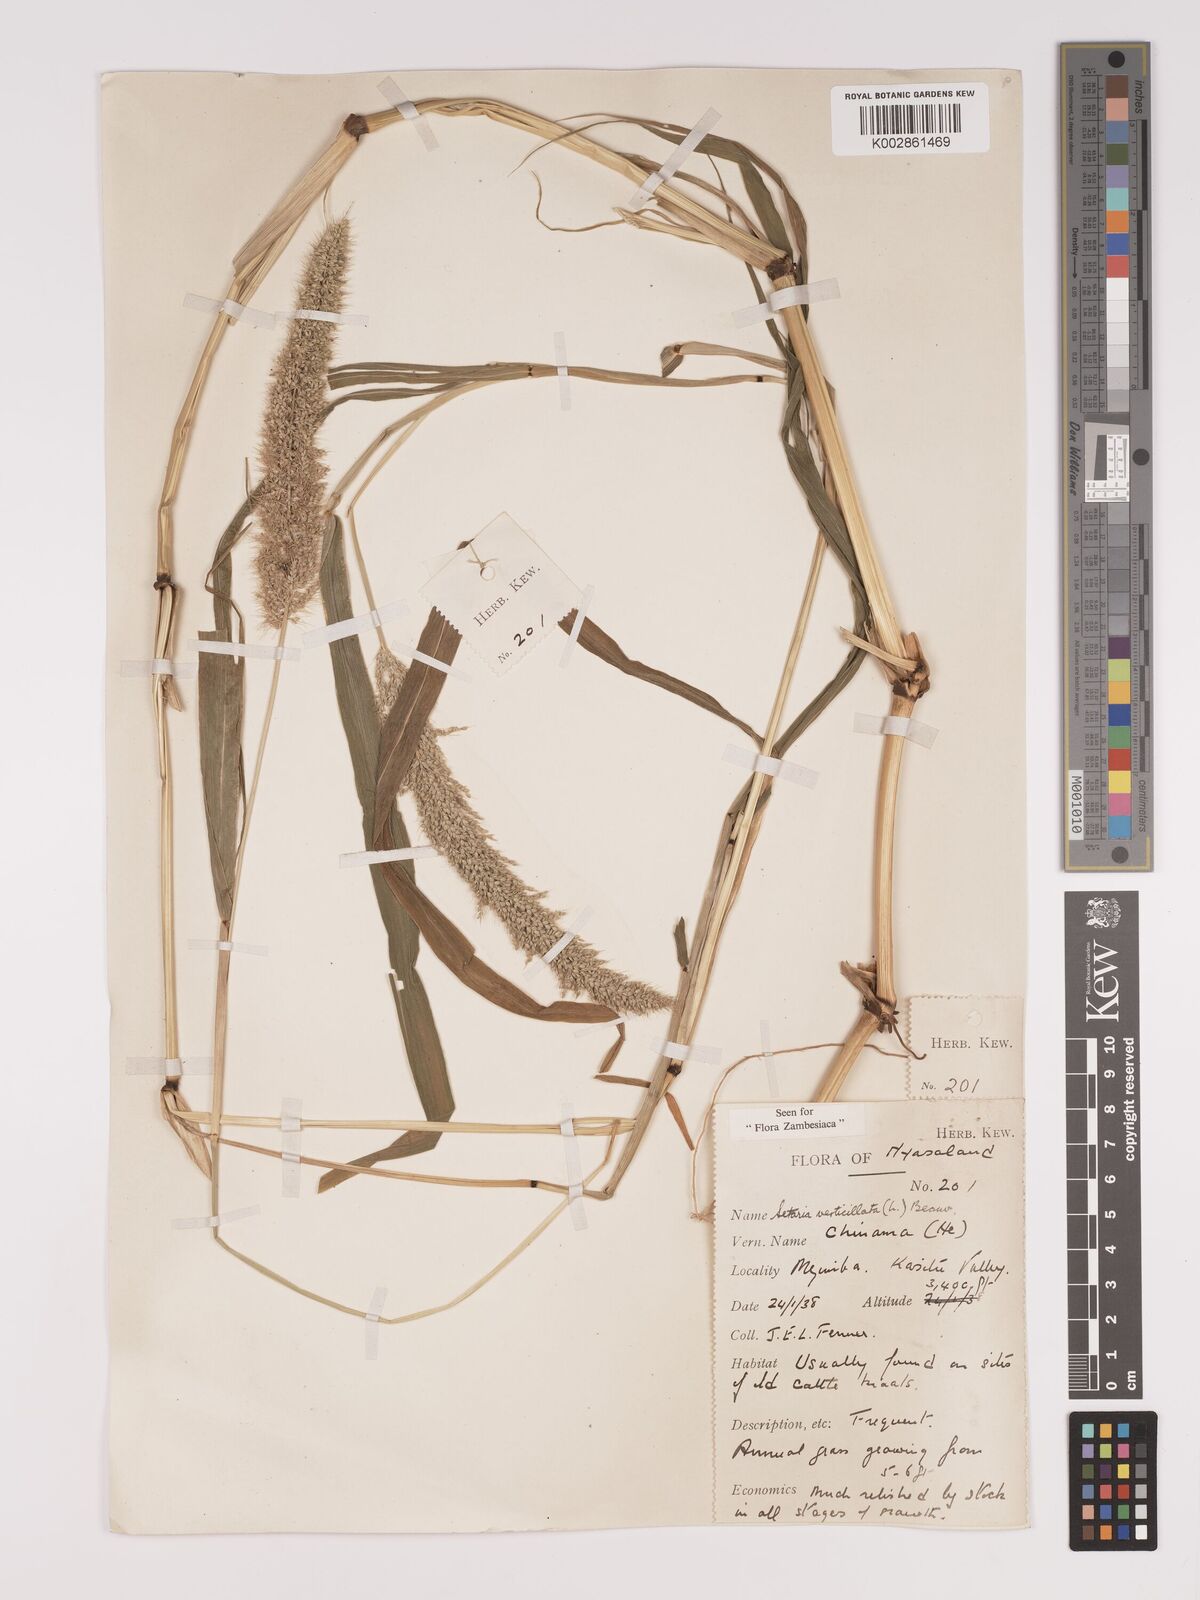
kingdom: Plantae
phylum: Tracheophyta
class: Liliopsida
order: Poales
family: Poaceae
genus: Setaria
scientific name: Setaria verticillata
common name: Hooked bristlegrass
